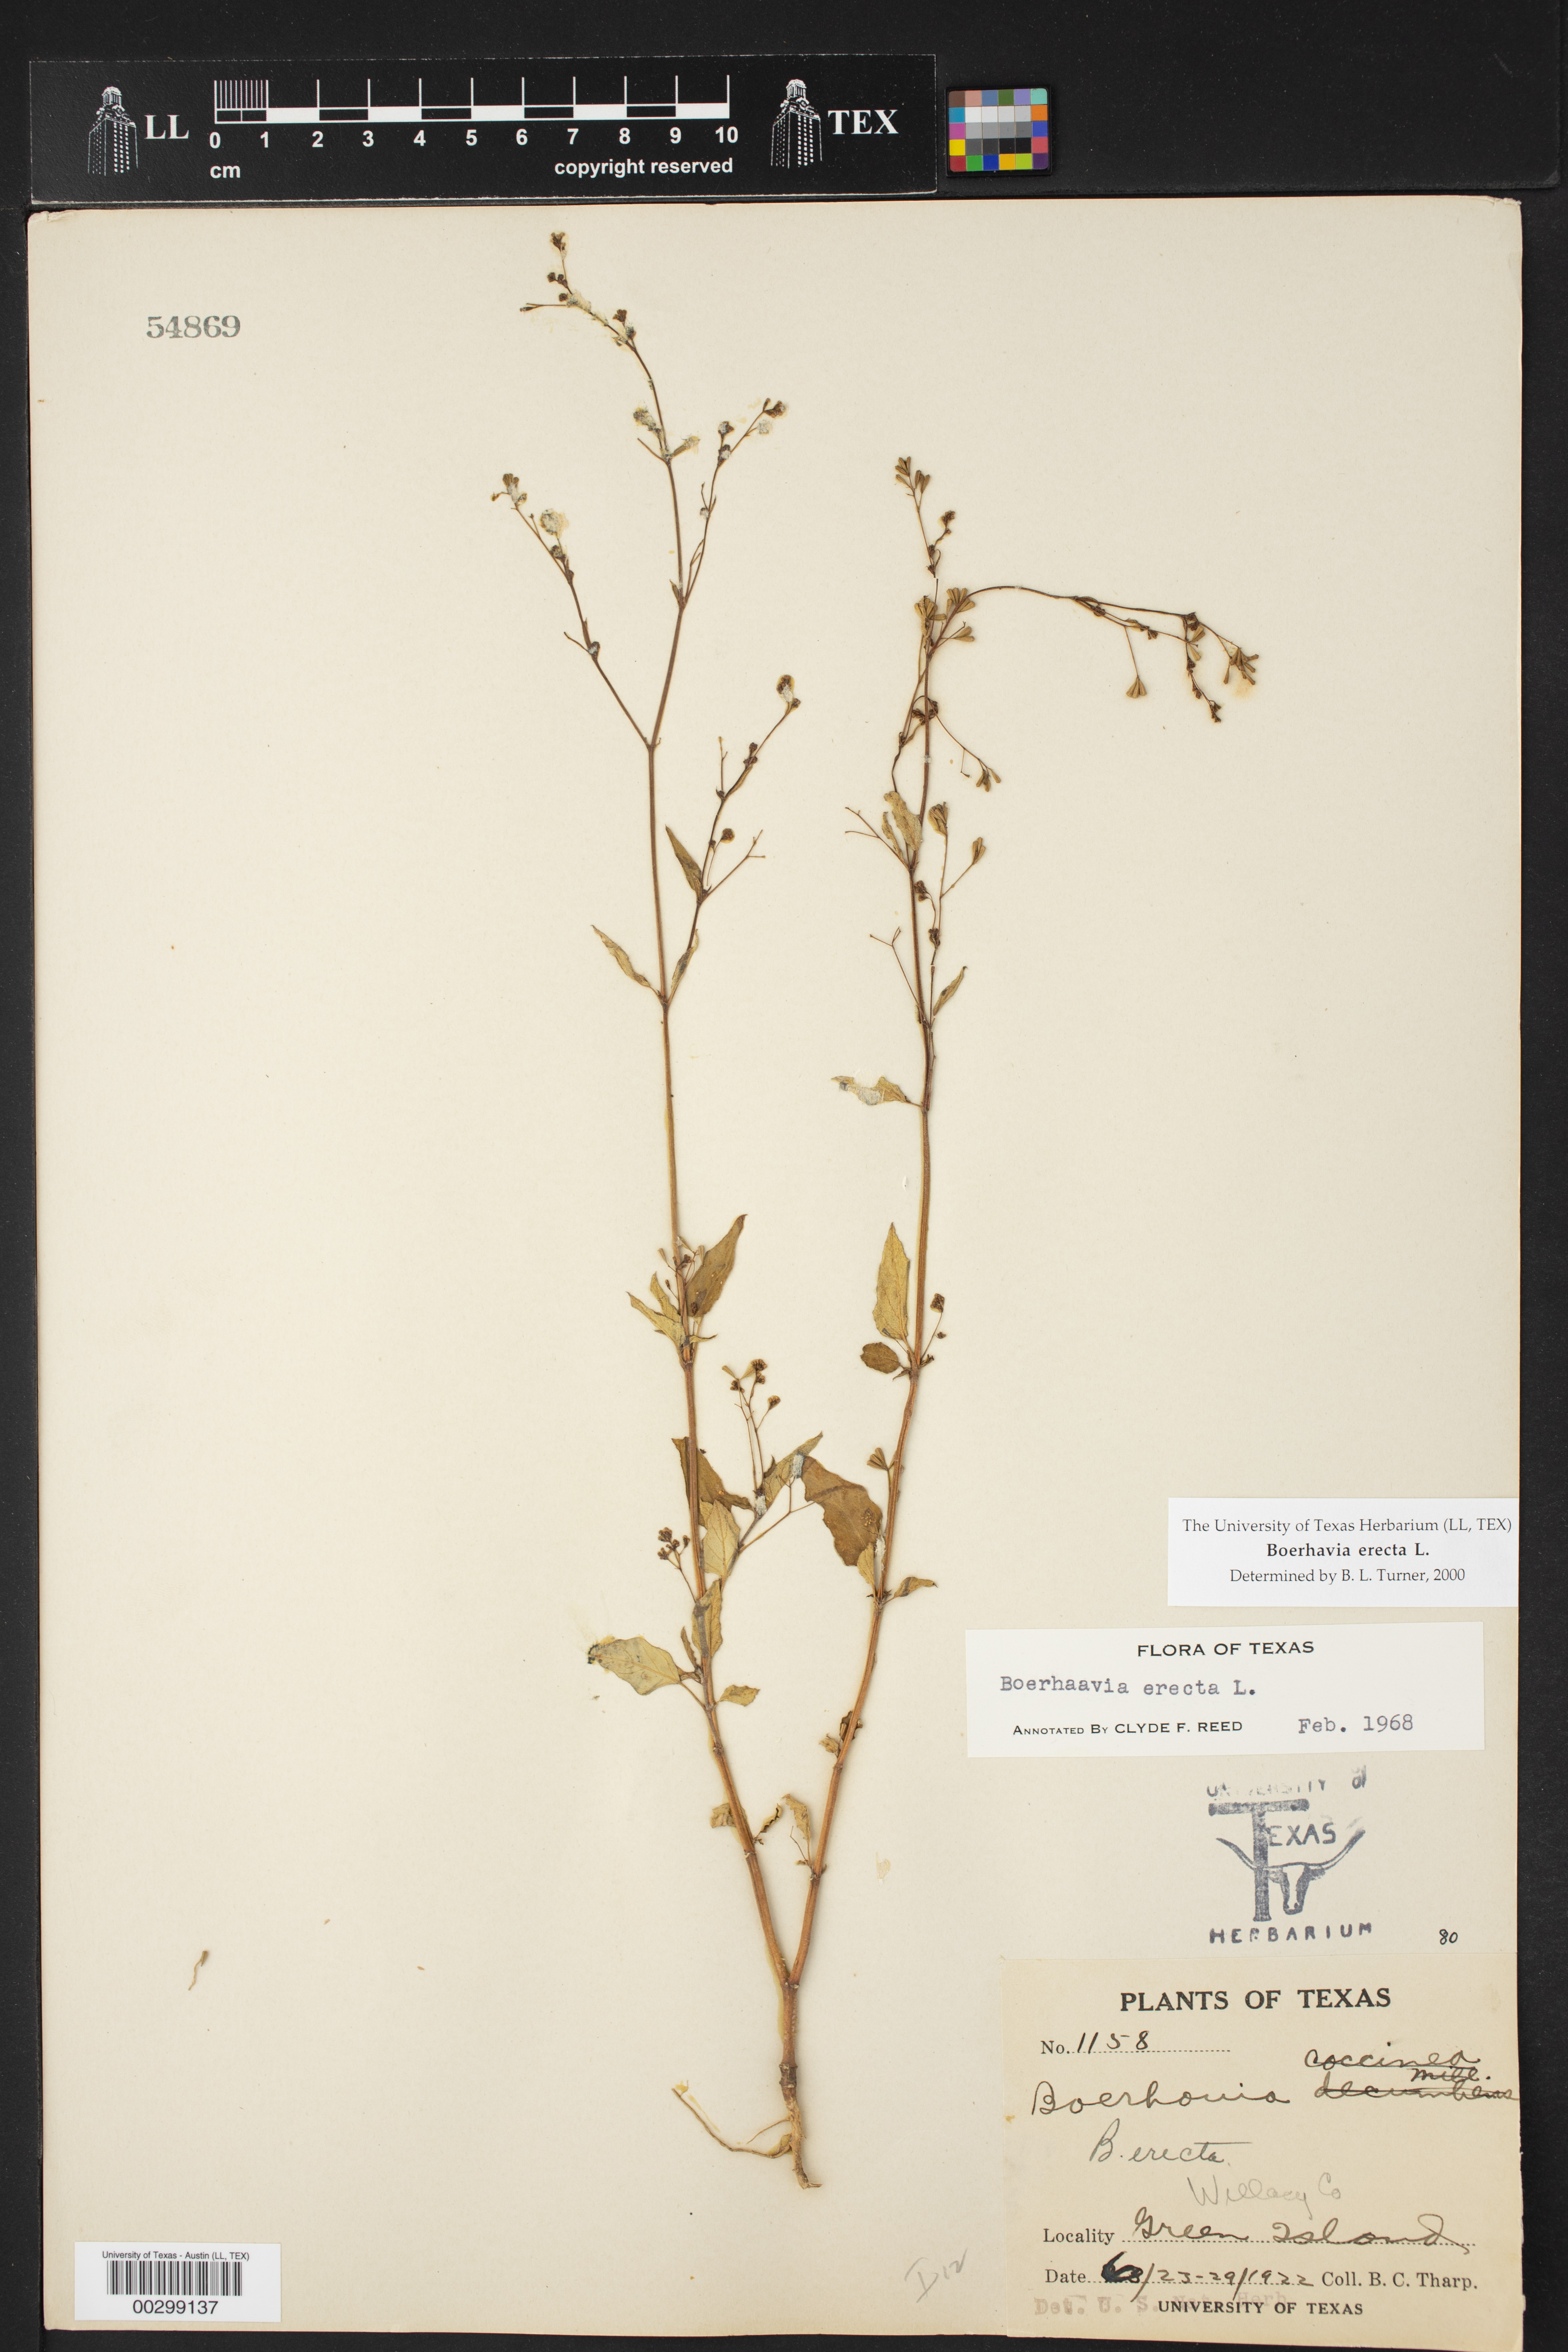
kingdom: Plantae
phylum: Tracheophyta
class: Magnoliopsida
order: Caryophyllales
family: Nyctaginaceae
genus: Boerhavia
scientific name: Boerhavia erecta
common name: Erect spiderling
